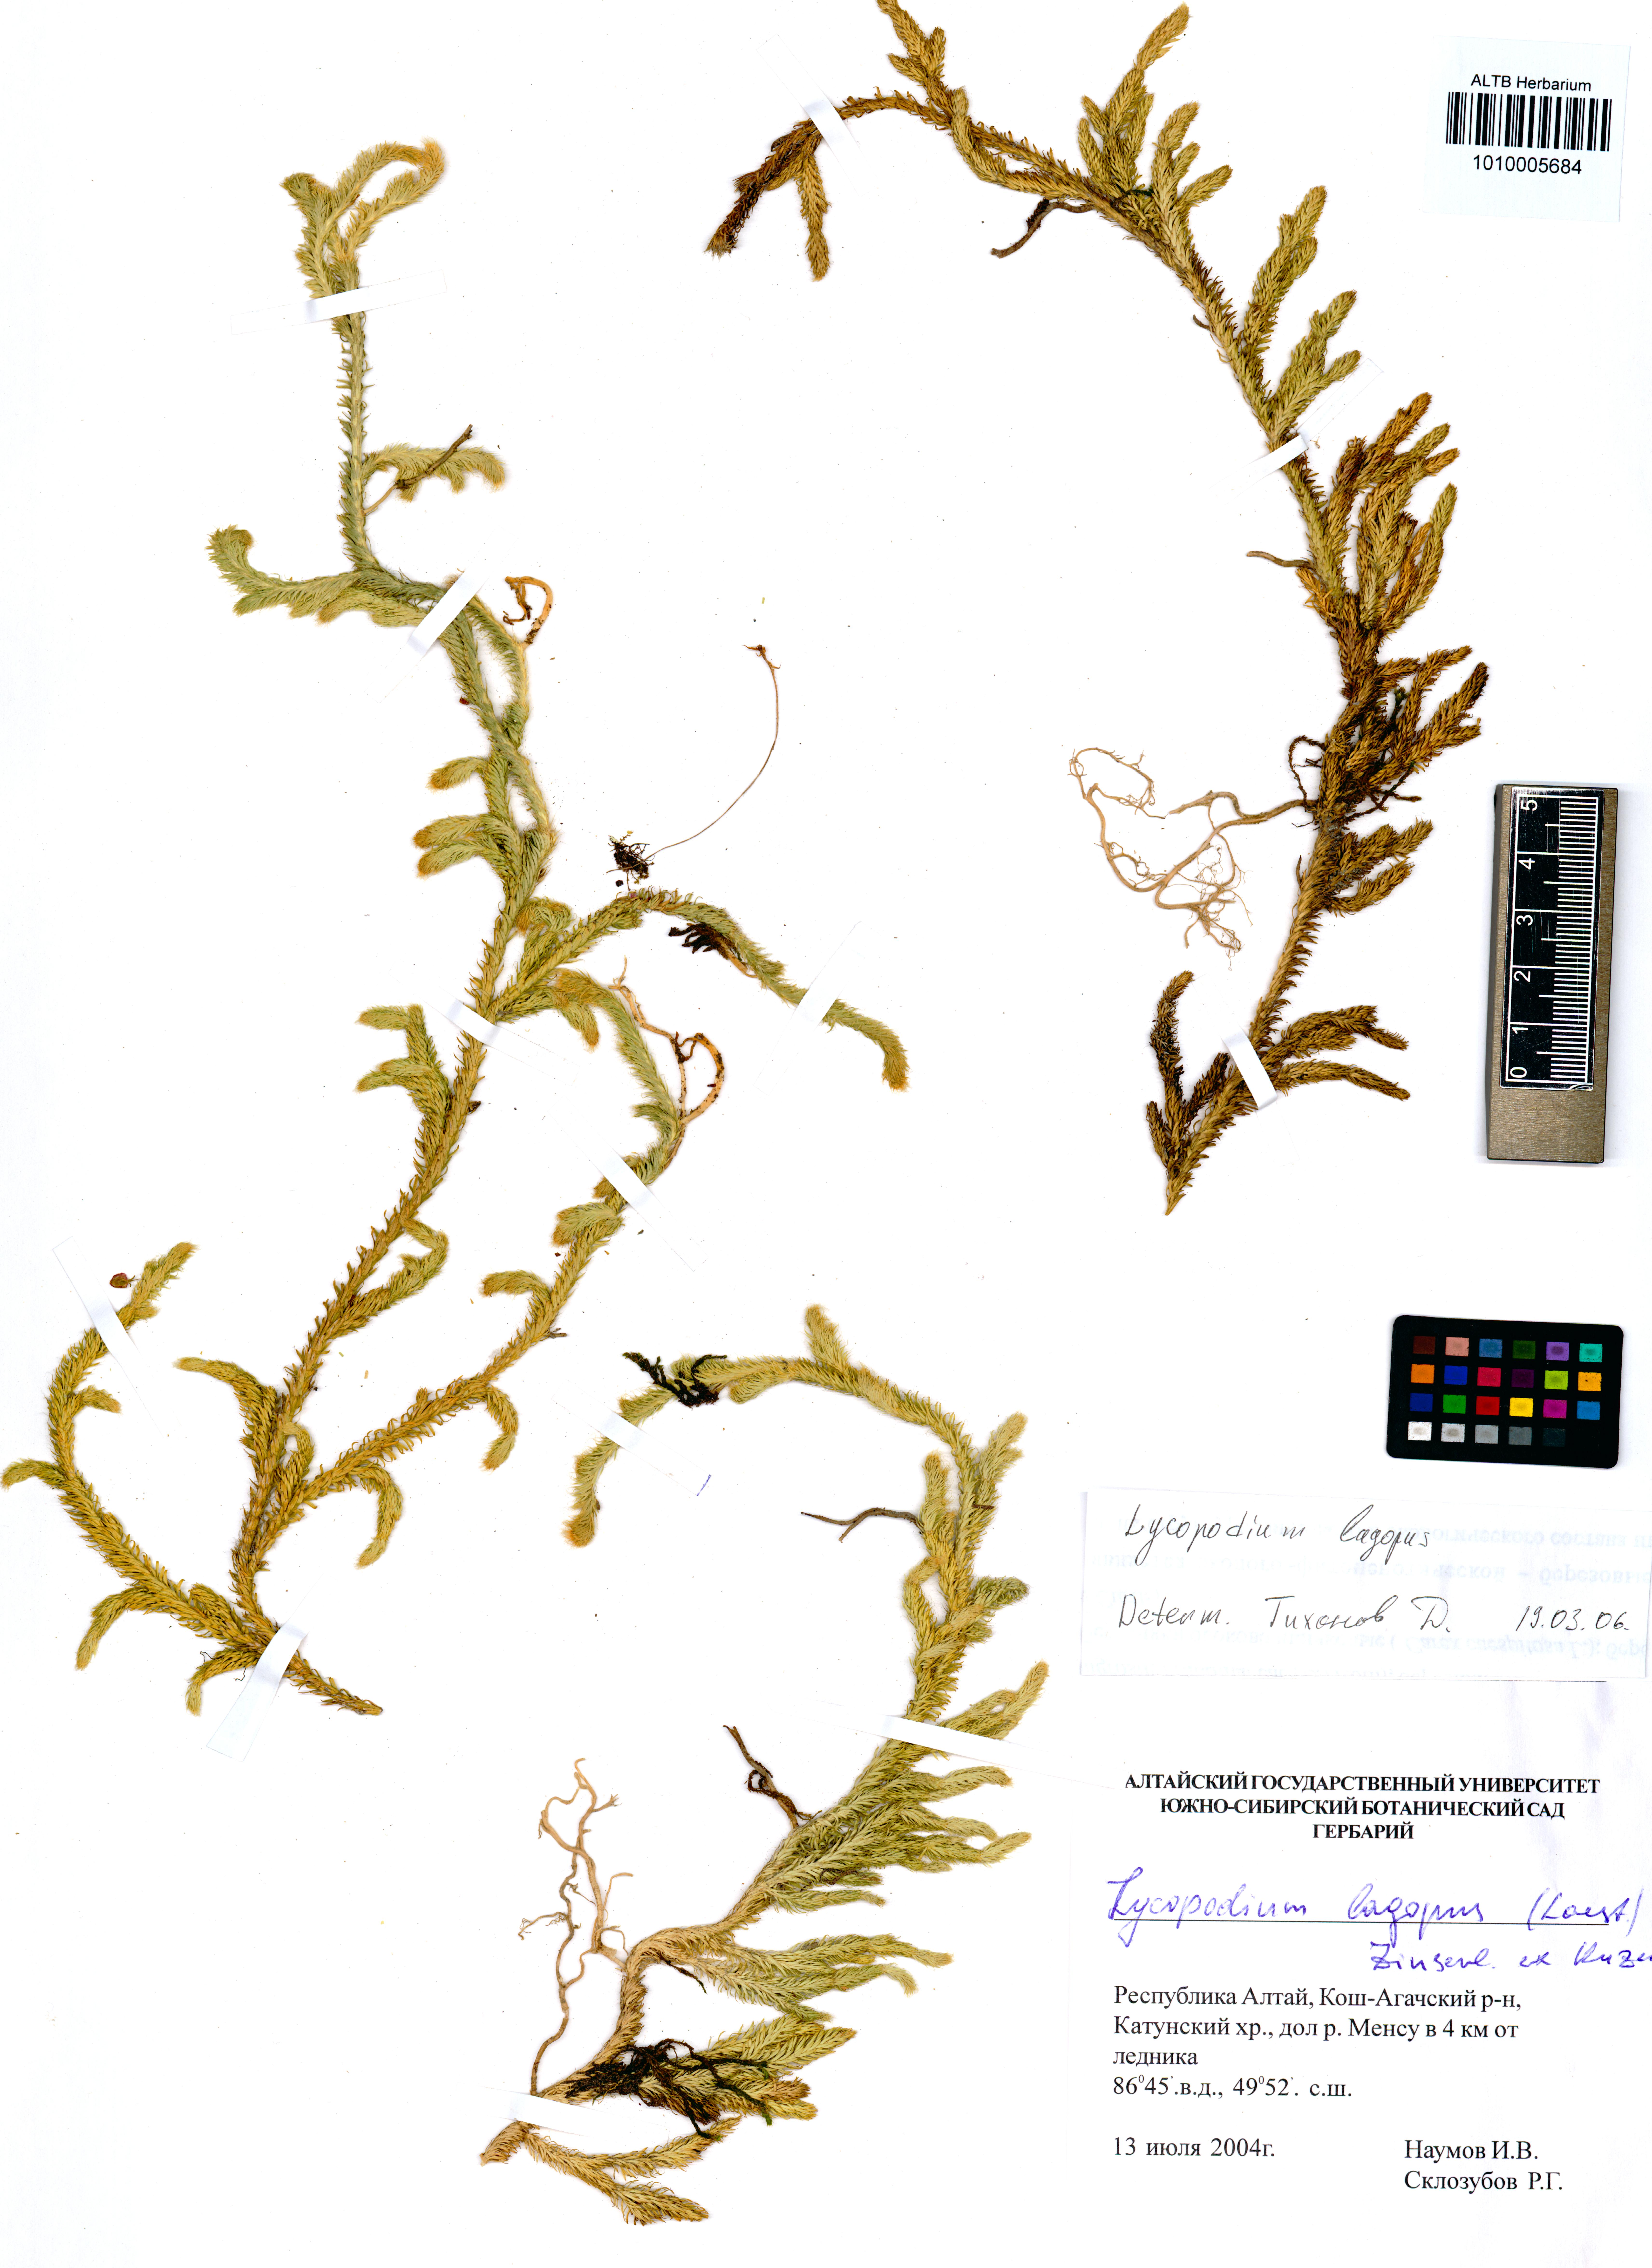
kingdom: Plantae
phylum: Tracheophyta
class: Lycopodiopsida
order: Lycopodiales
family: Lycopodiaceae
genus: Lycopodium
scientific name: Lycopodium lagopus
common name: One-cone clubmoss
